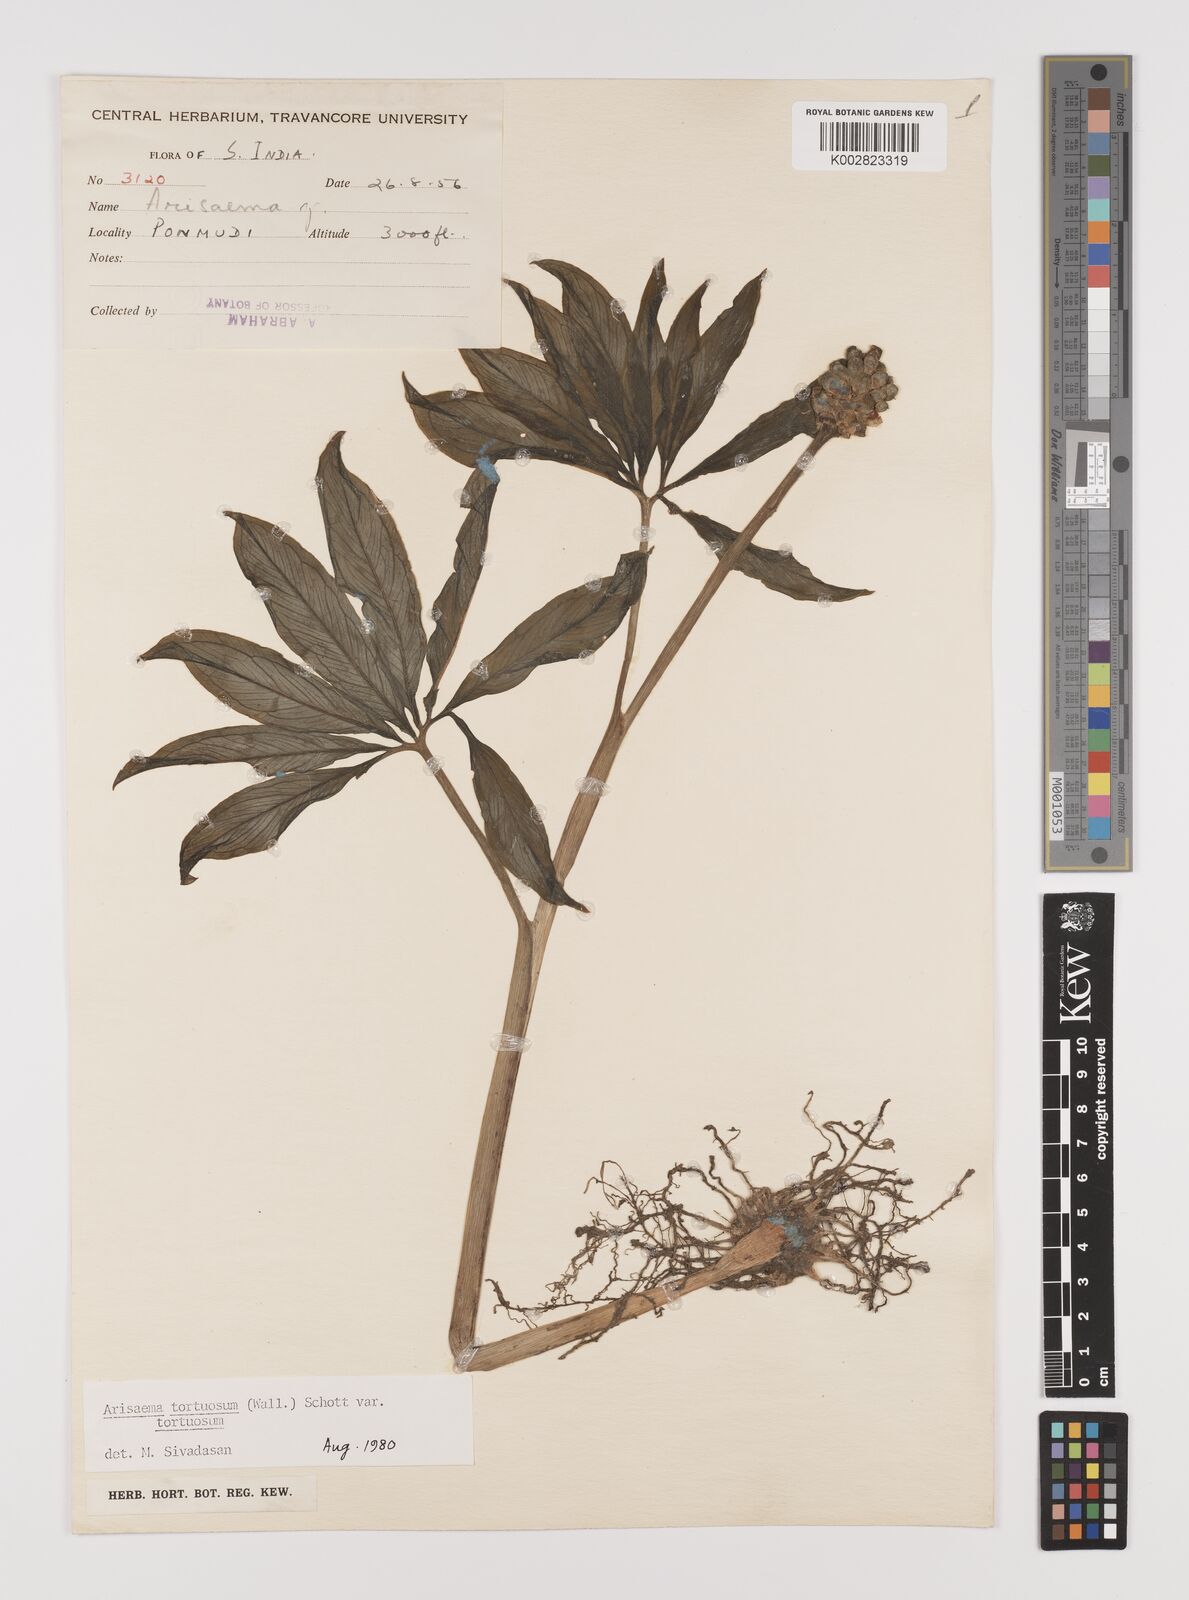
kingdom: Plantae
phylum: Tracheophyta
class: Liliopsida
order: Alismatales
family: Araceae
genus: Arisaema
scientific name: Arisaema tortuosum
